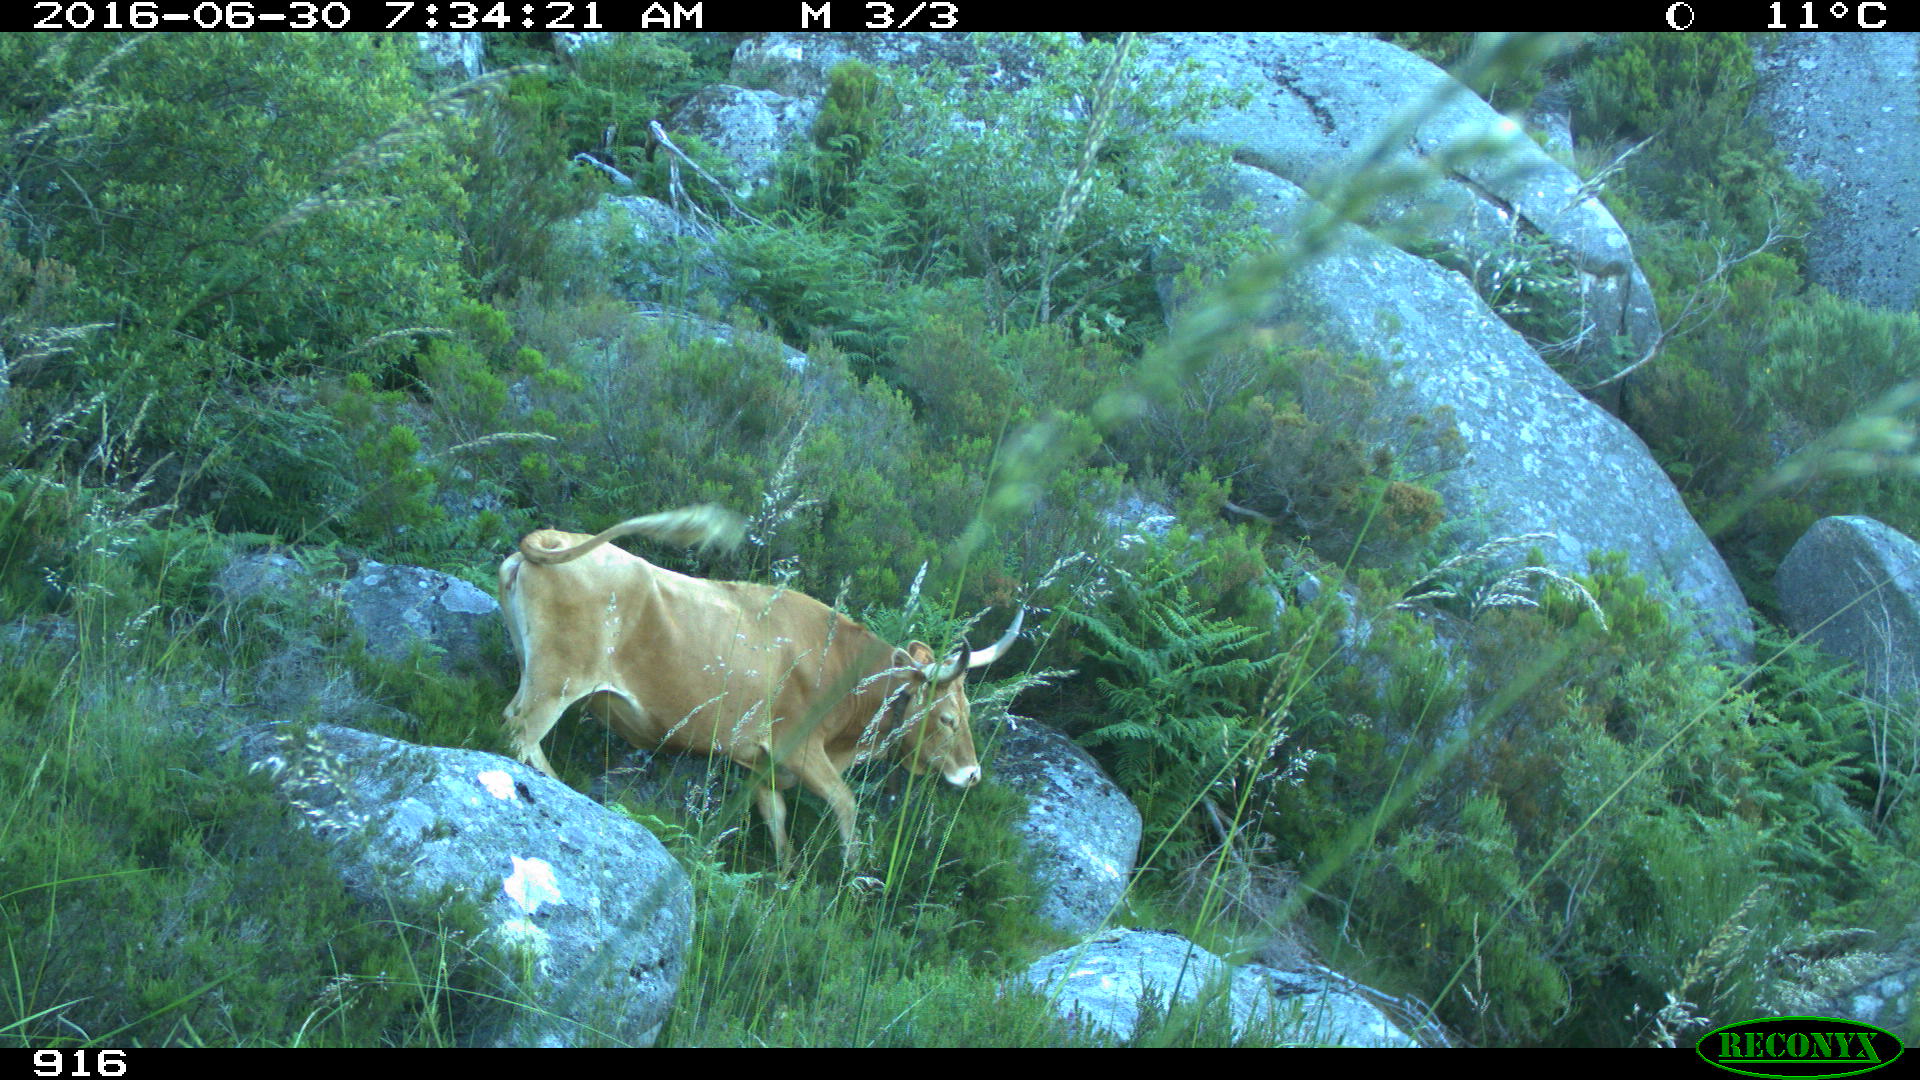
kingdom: Animalia
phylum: Chordata
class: Mammalia
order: Artiodactyla
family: Bovidae
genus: Bos
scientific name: Bos taurus
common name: Domesticated cattle
